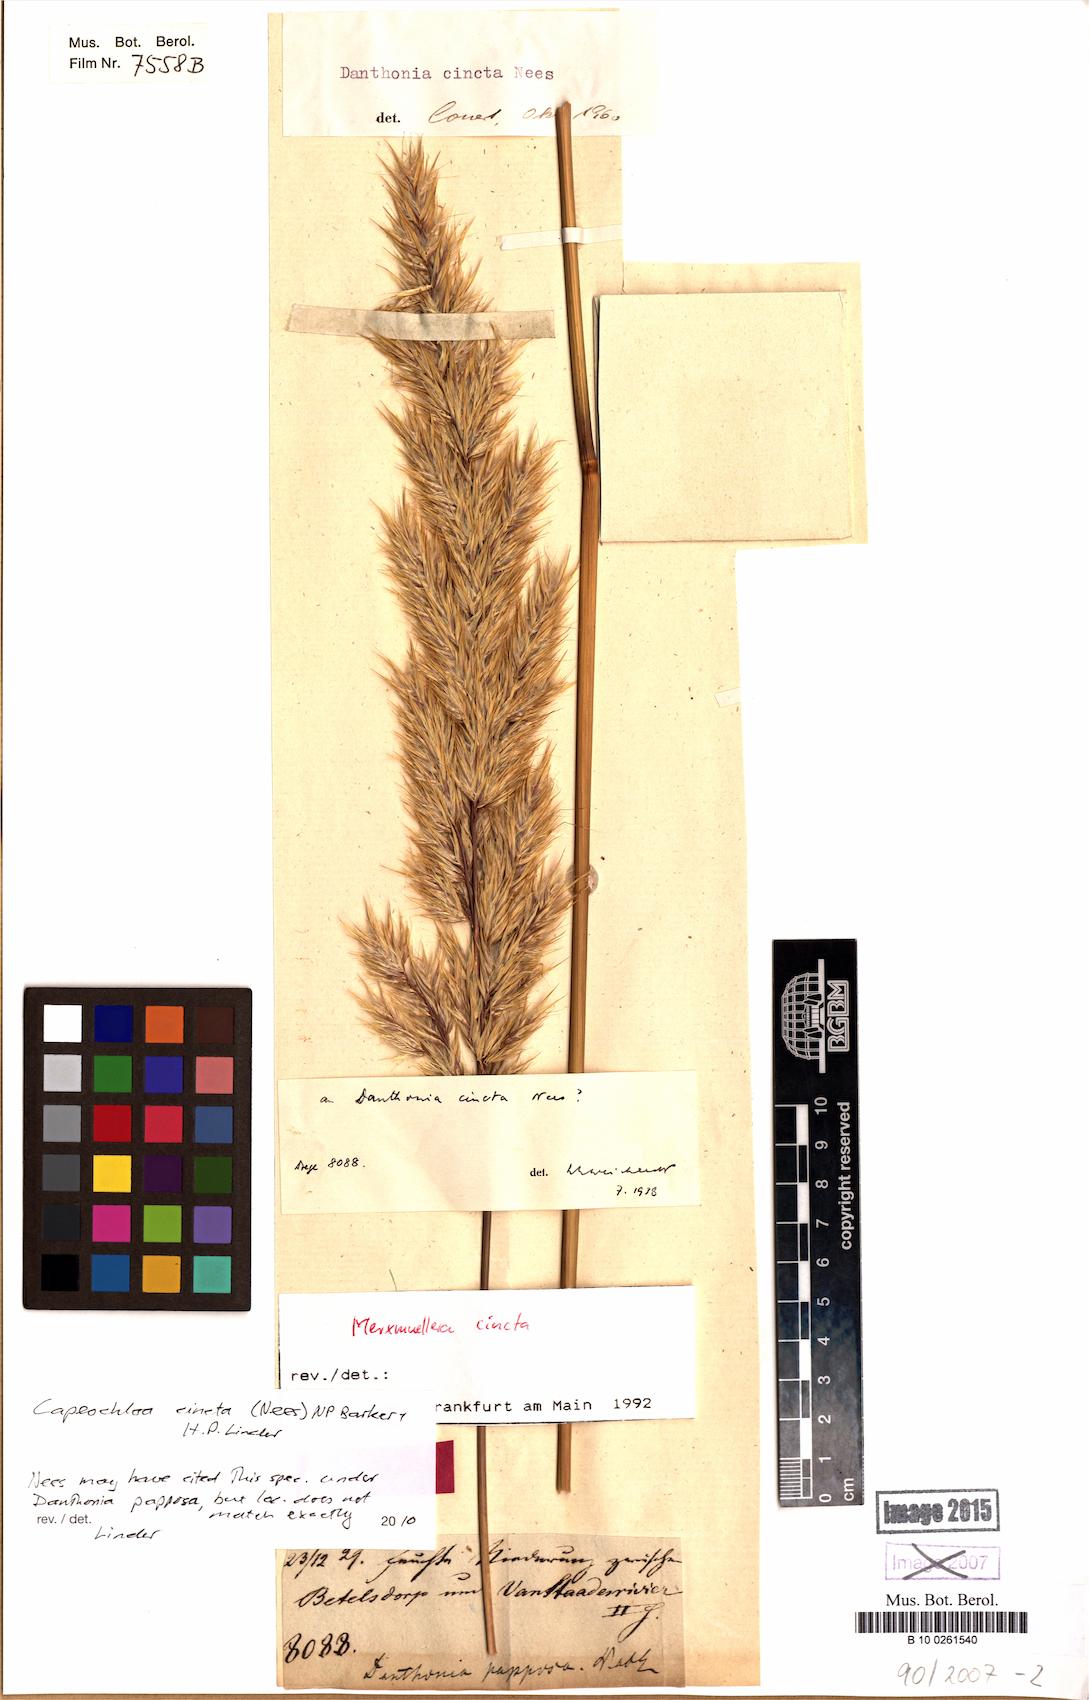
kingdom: Plantae
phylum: Tracheophyta
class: Liliopsida
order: Poales
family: Poaceae
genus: Capeochloa
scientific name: Capeochloa cincta
